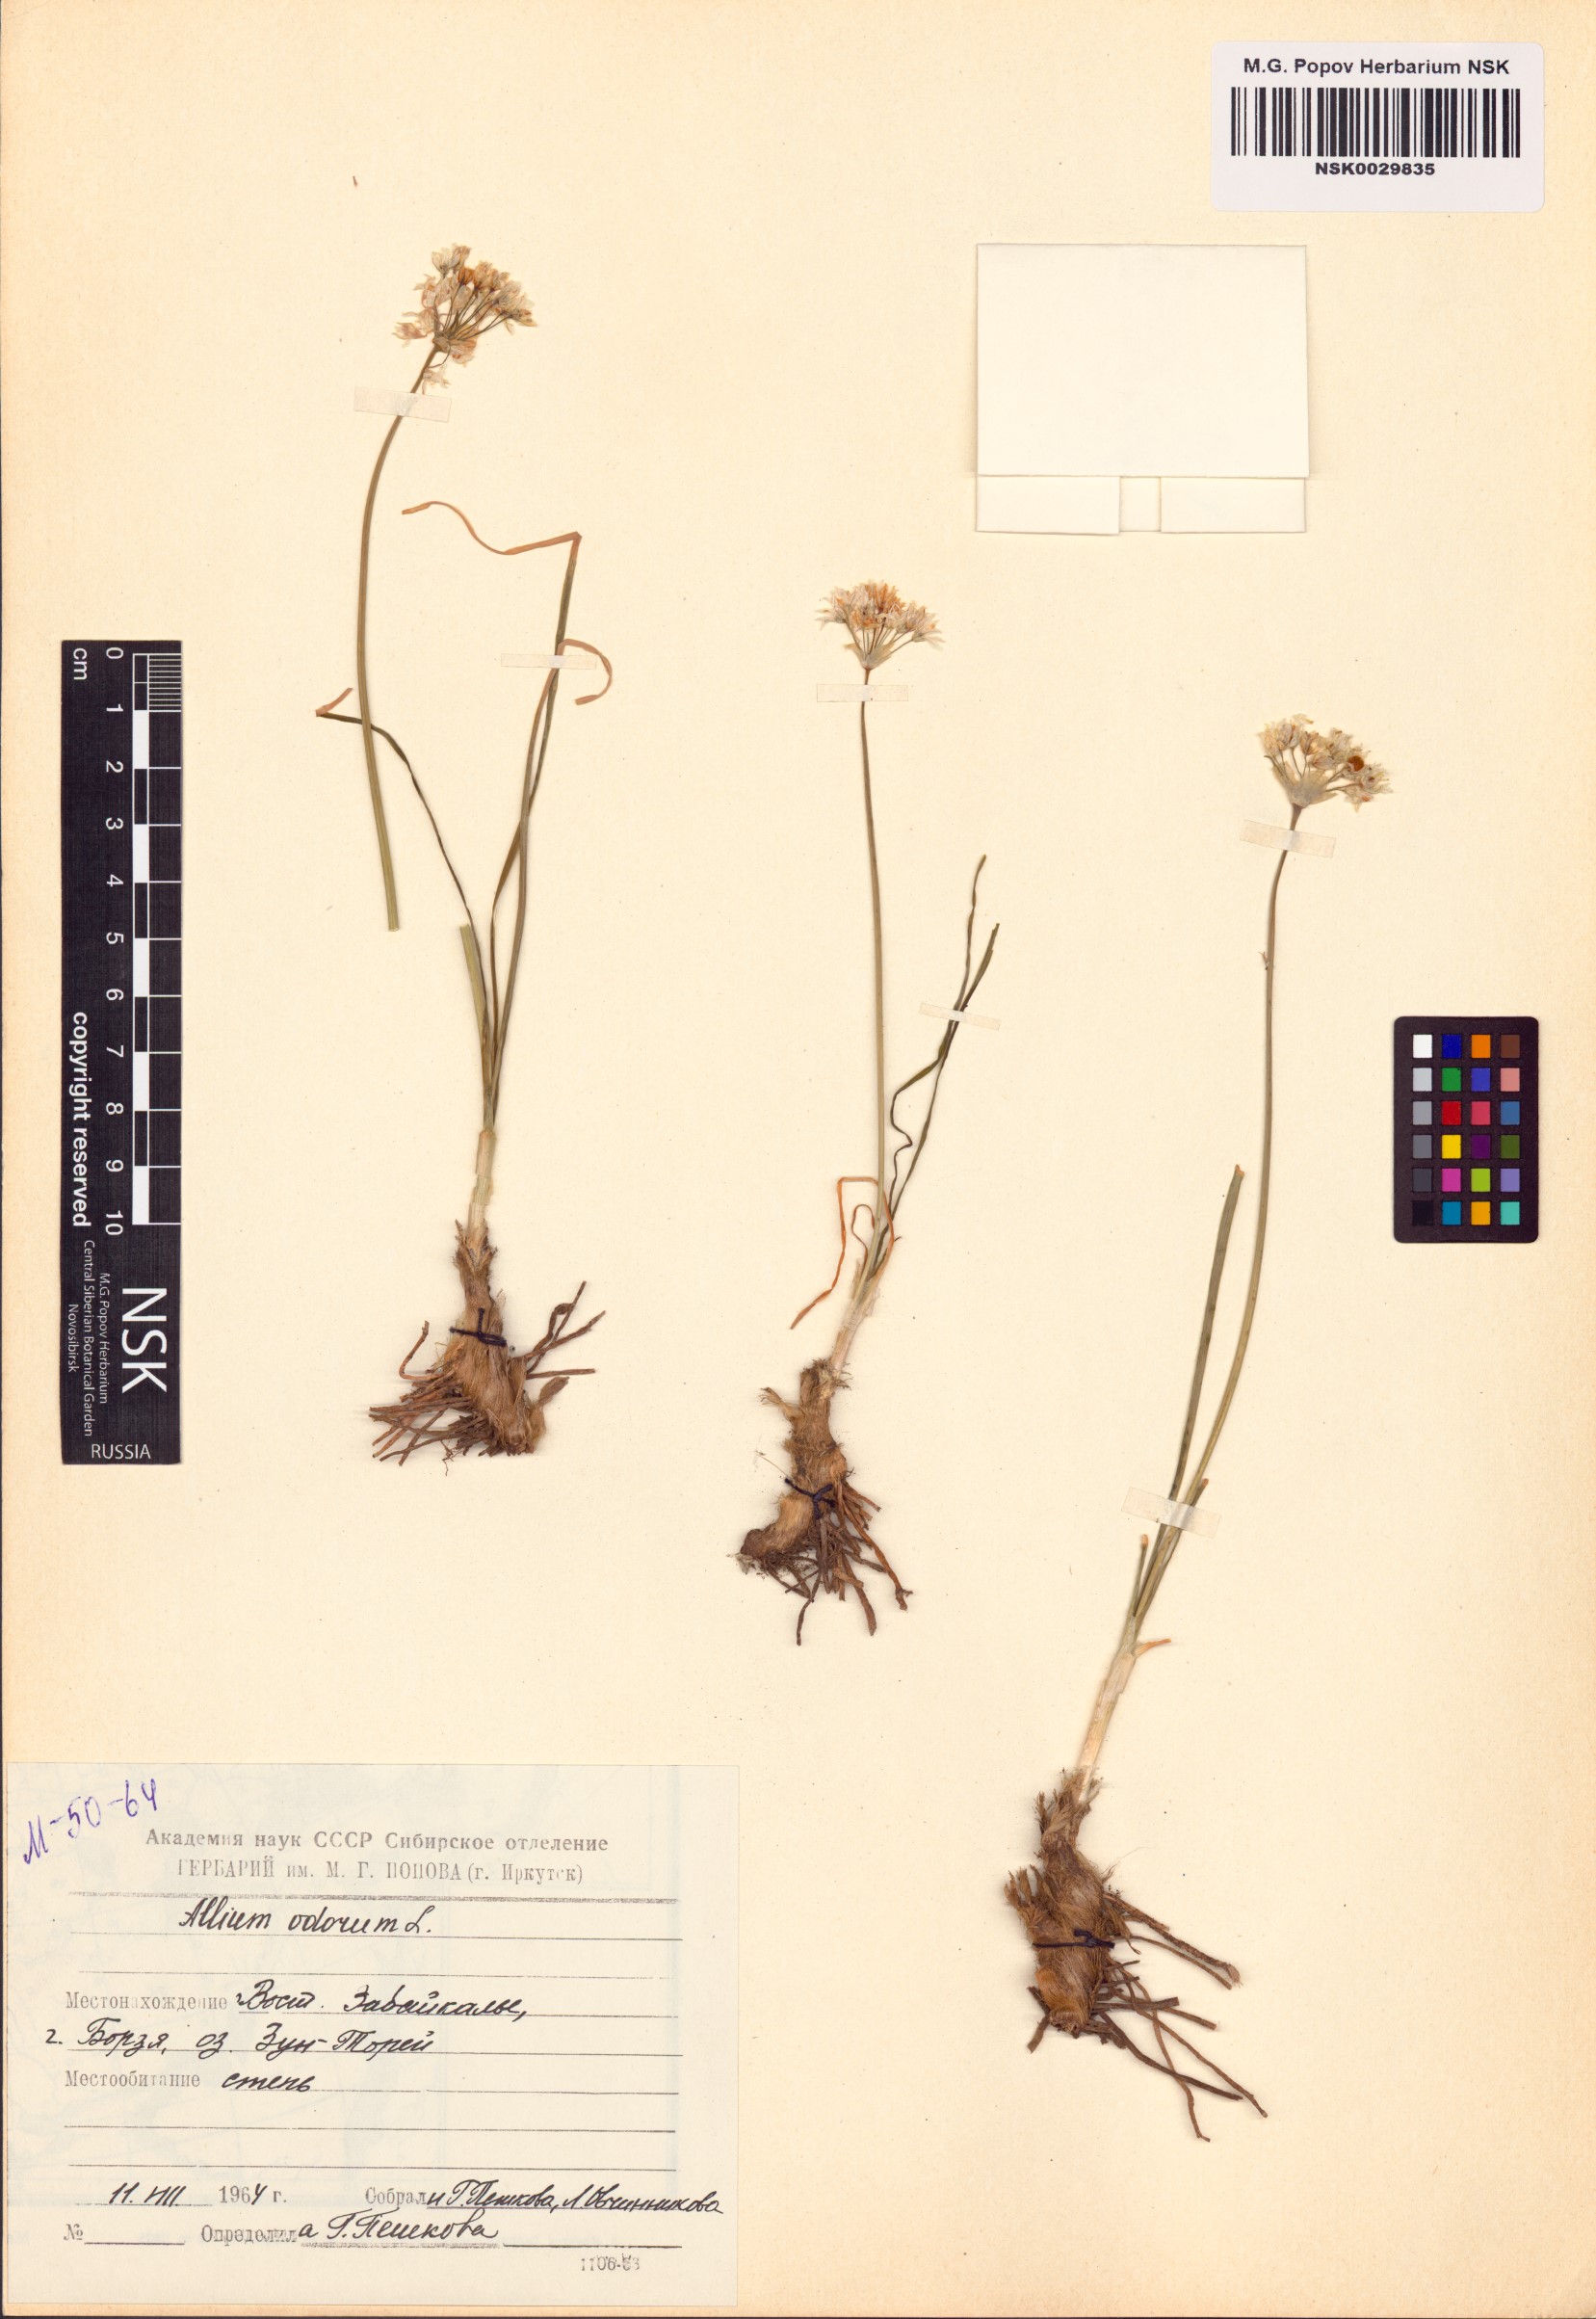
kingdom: Plantae
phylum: Tracheophyta
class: Liliopsida
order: Asparagales
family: Amaryllidaceae
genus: Allium
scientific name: Allium ramosum
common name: Fragrant garlic
